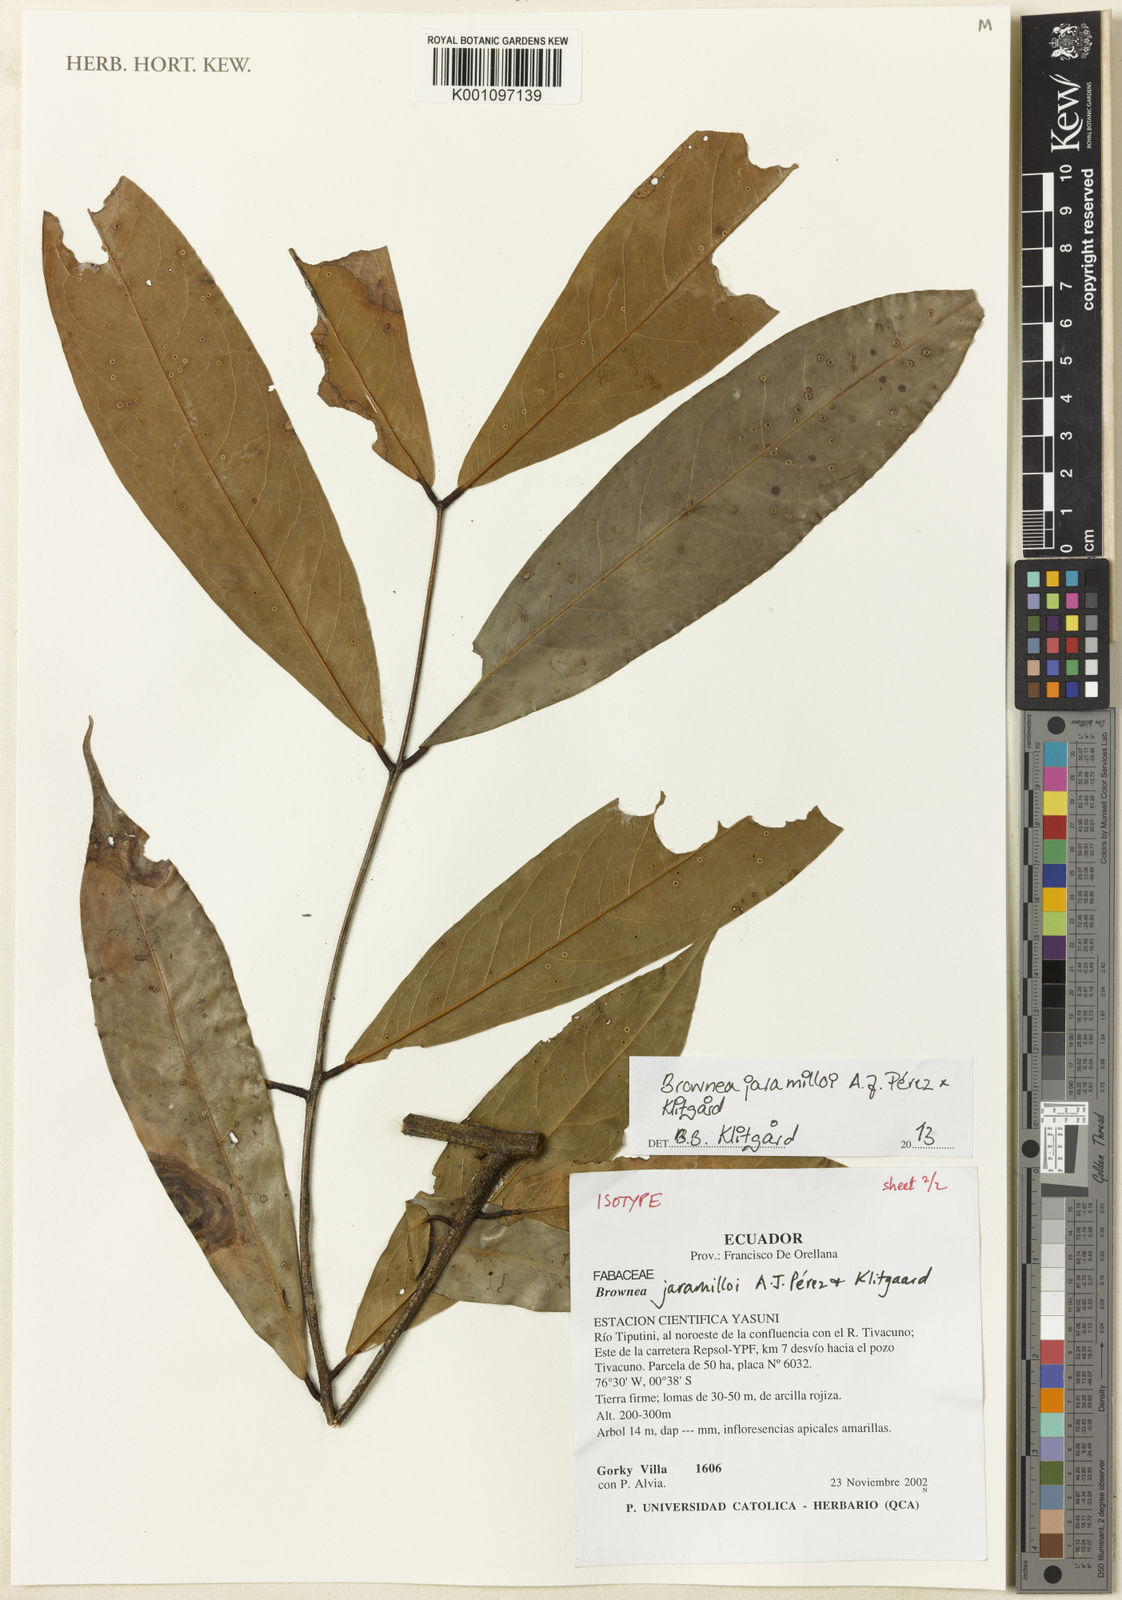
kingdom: Plantae
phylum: Tracheophyta
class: Magnoliopsida
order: Fabales
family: Fabaceae
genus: Brownea
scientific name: Brownea
